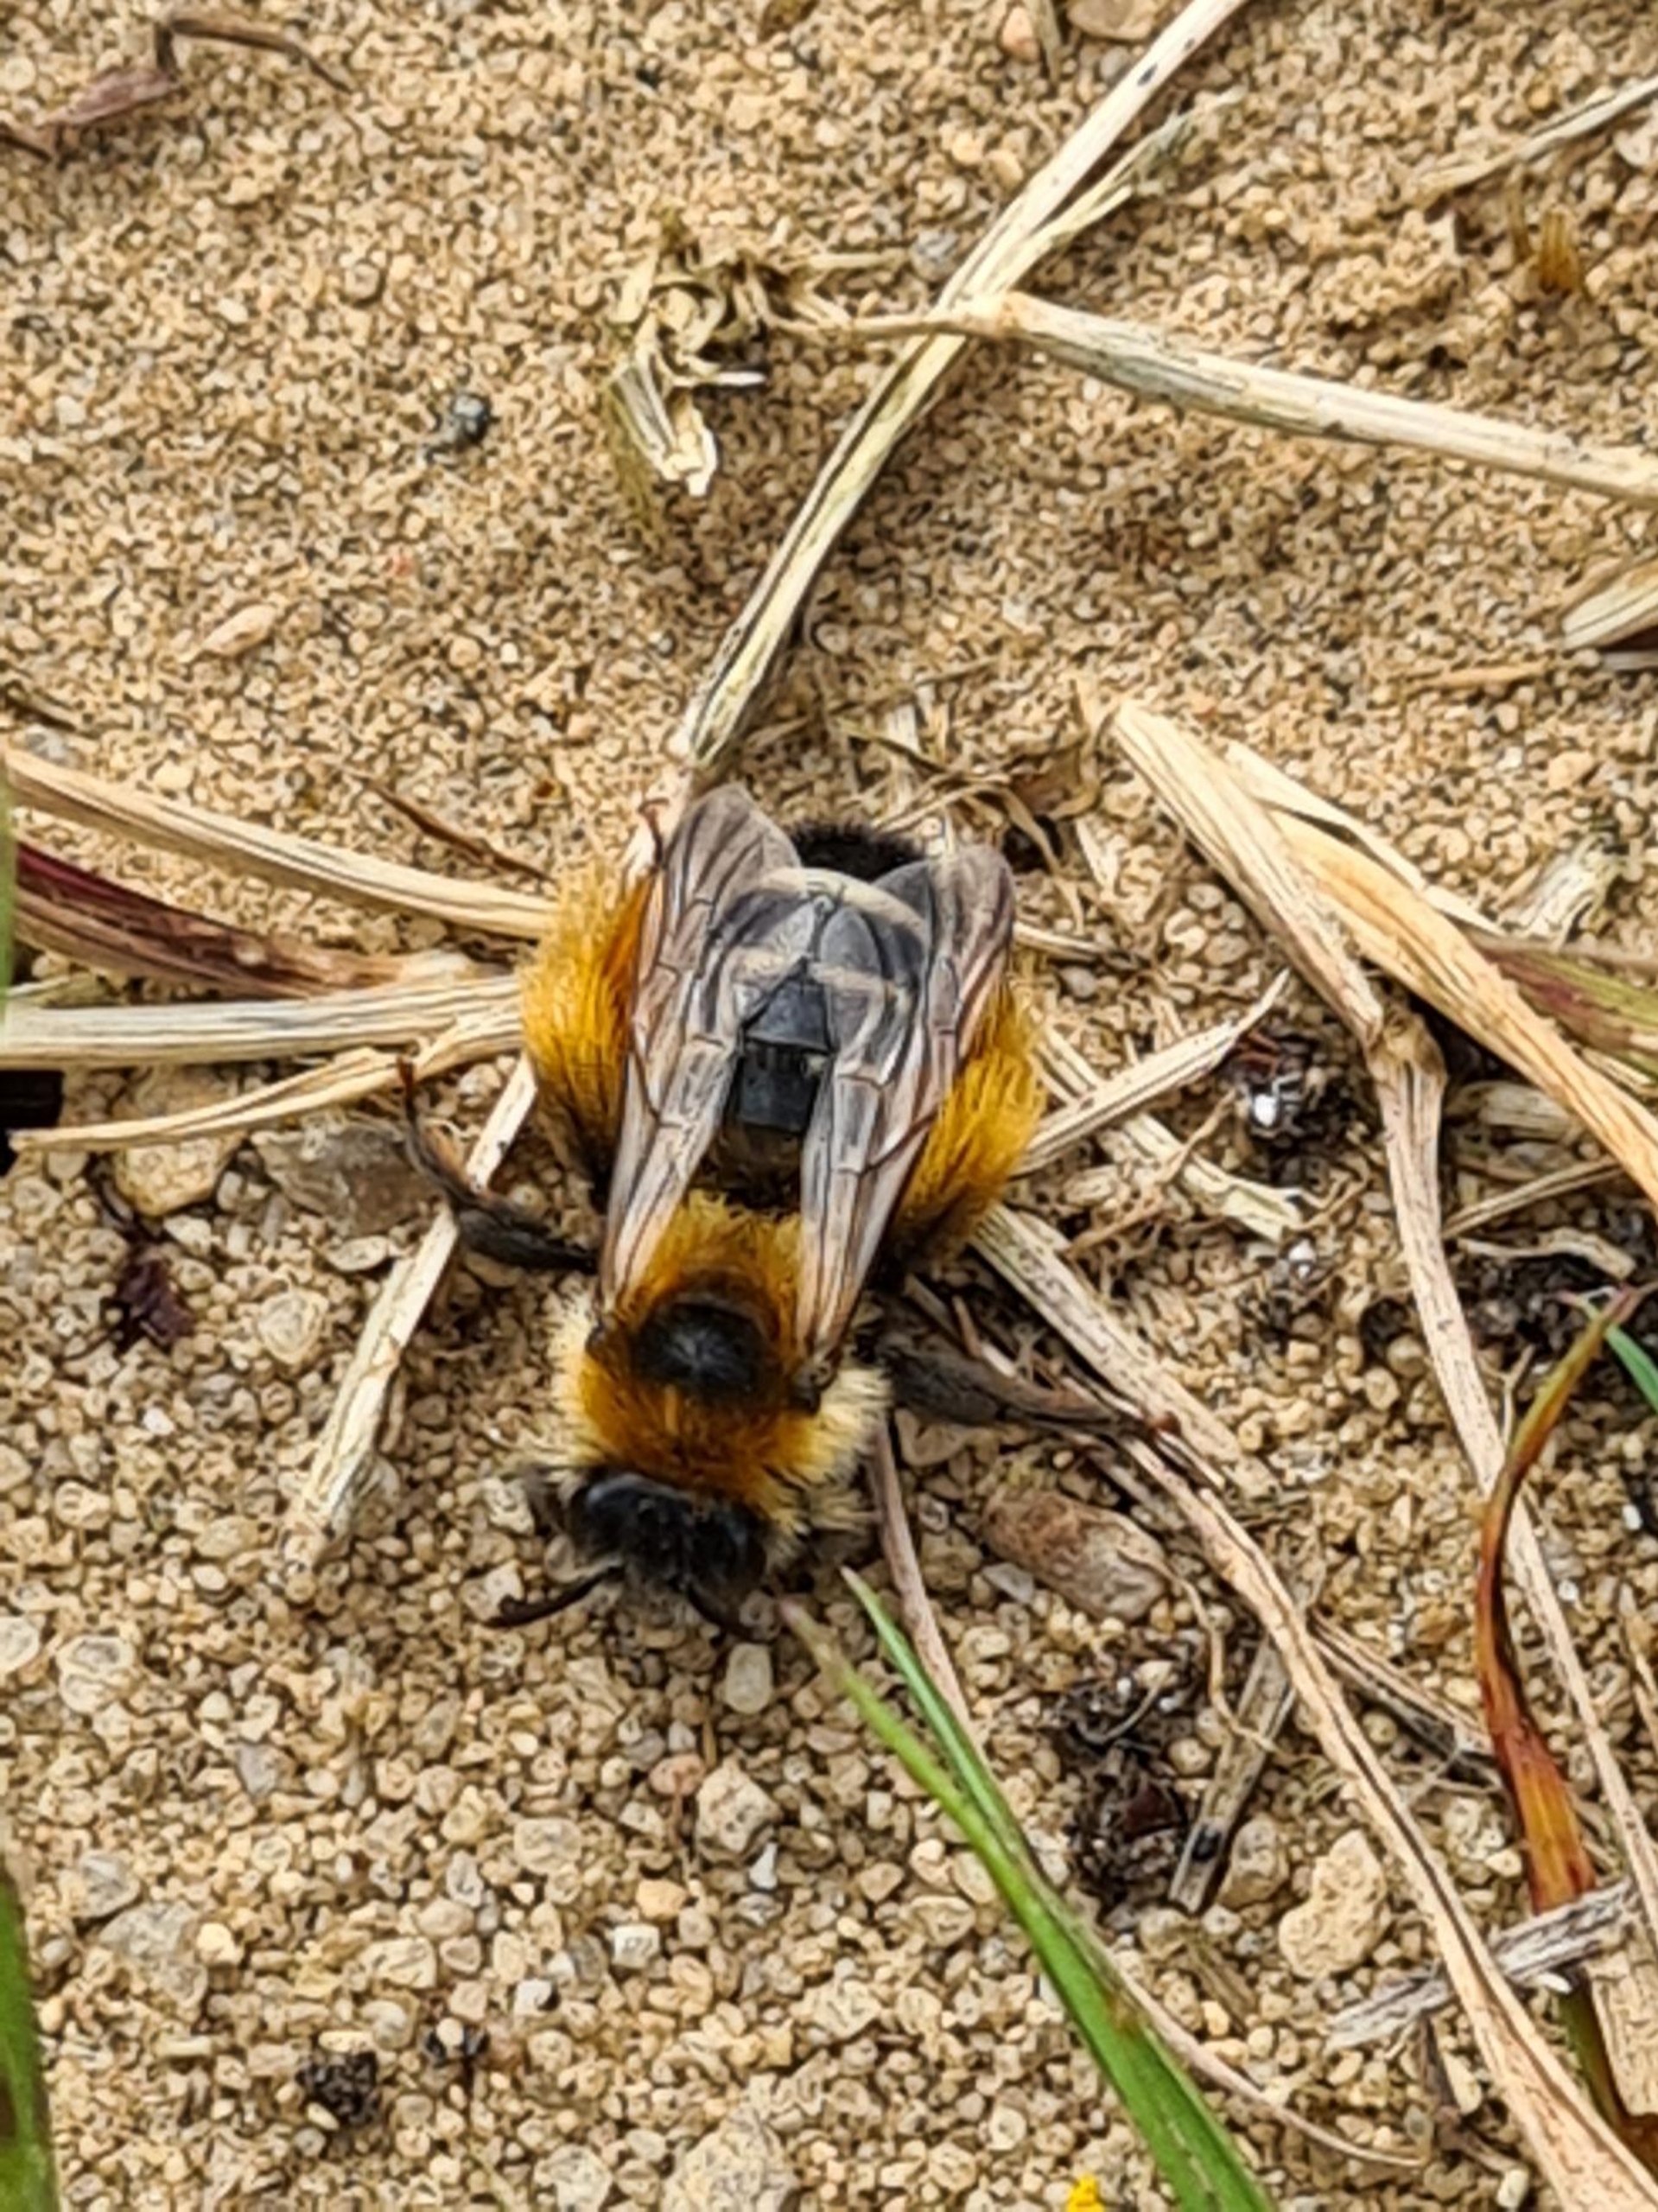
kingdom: Animalia
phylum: Arthropoda
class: Insecta
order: Hymenoptera
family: Melittidae
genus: Dasypoda
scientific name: Dasypoda hirtipes
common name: Pragtbuksebi
